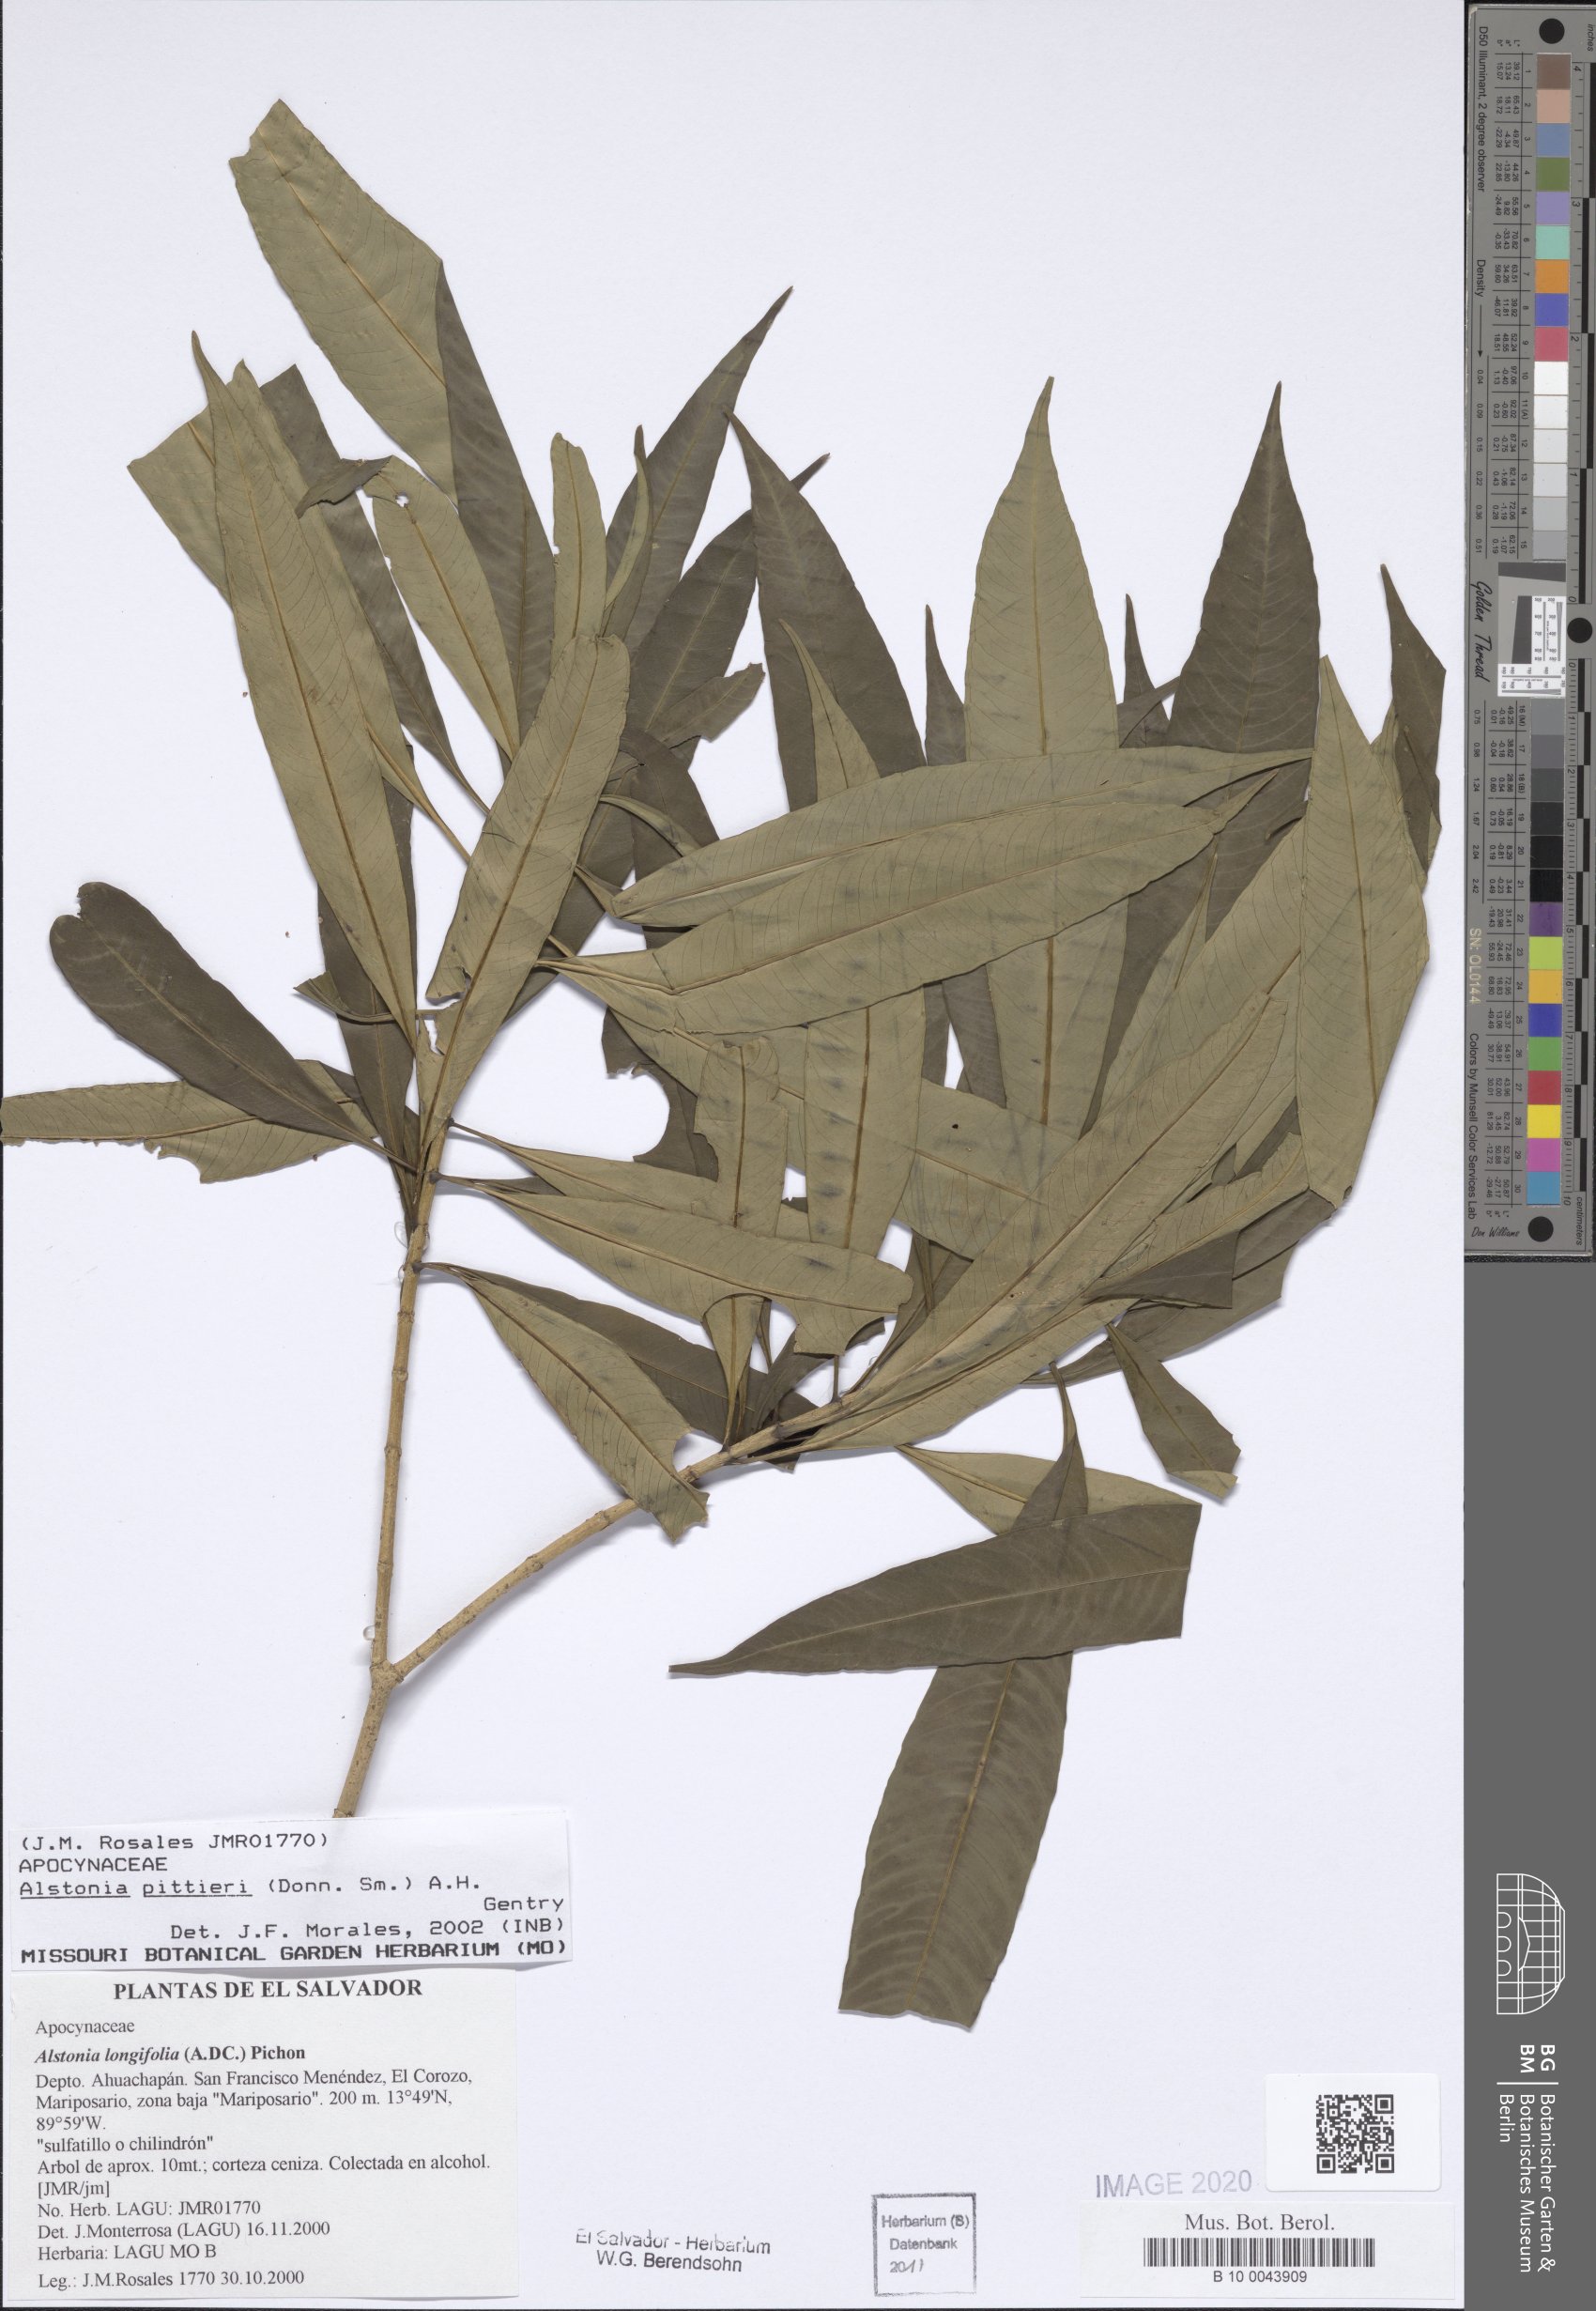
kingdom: Plantae
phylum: Tracheophyta
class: Magnoliopsida
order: Gentianales
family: Apocynaceae
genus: Tonduzia
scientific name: Tonduzia longifolia
